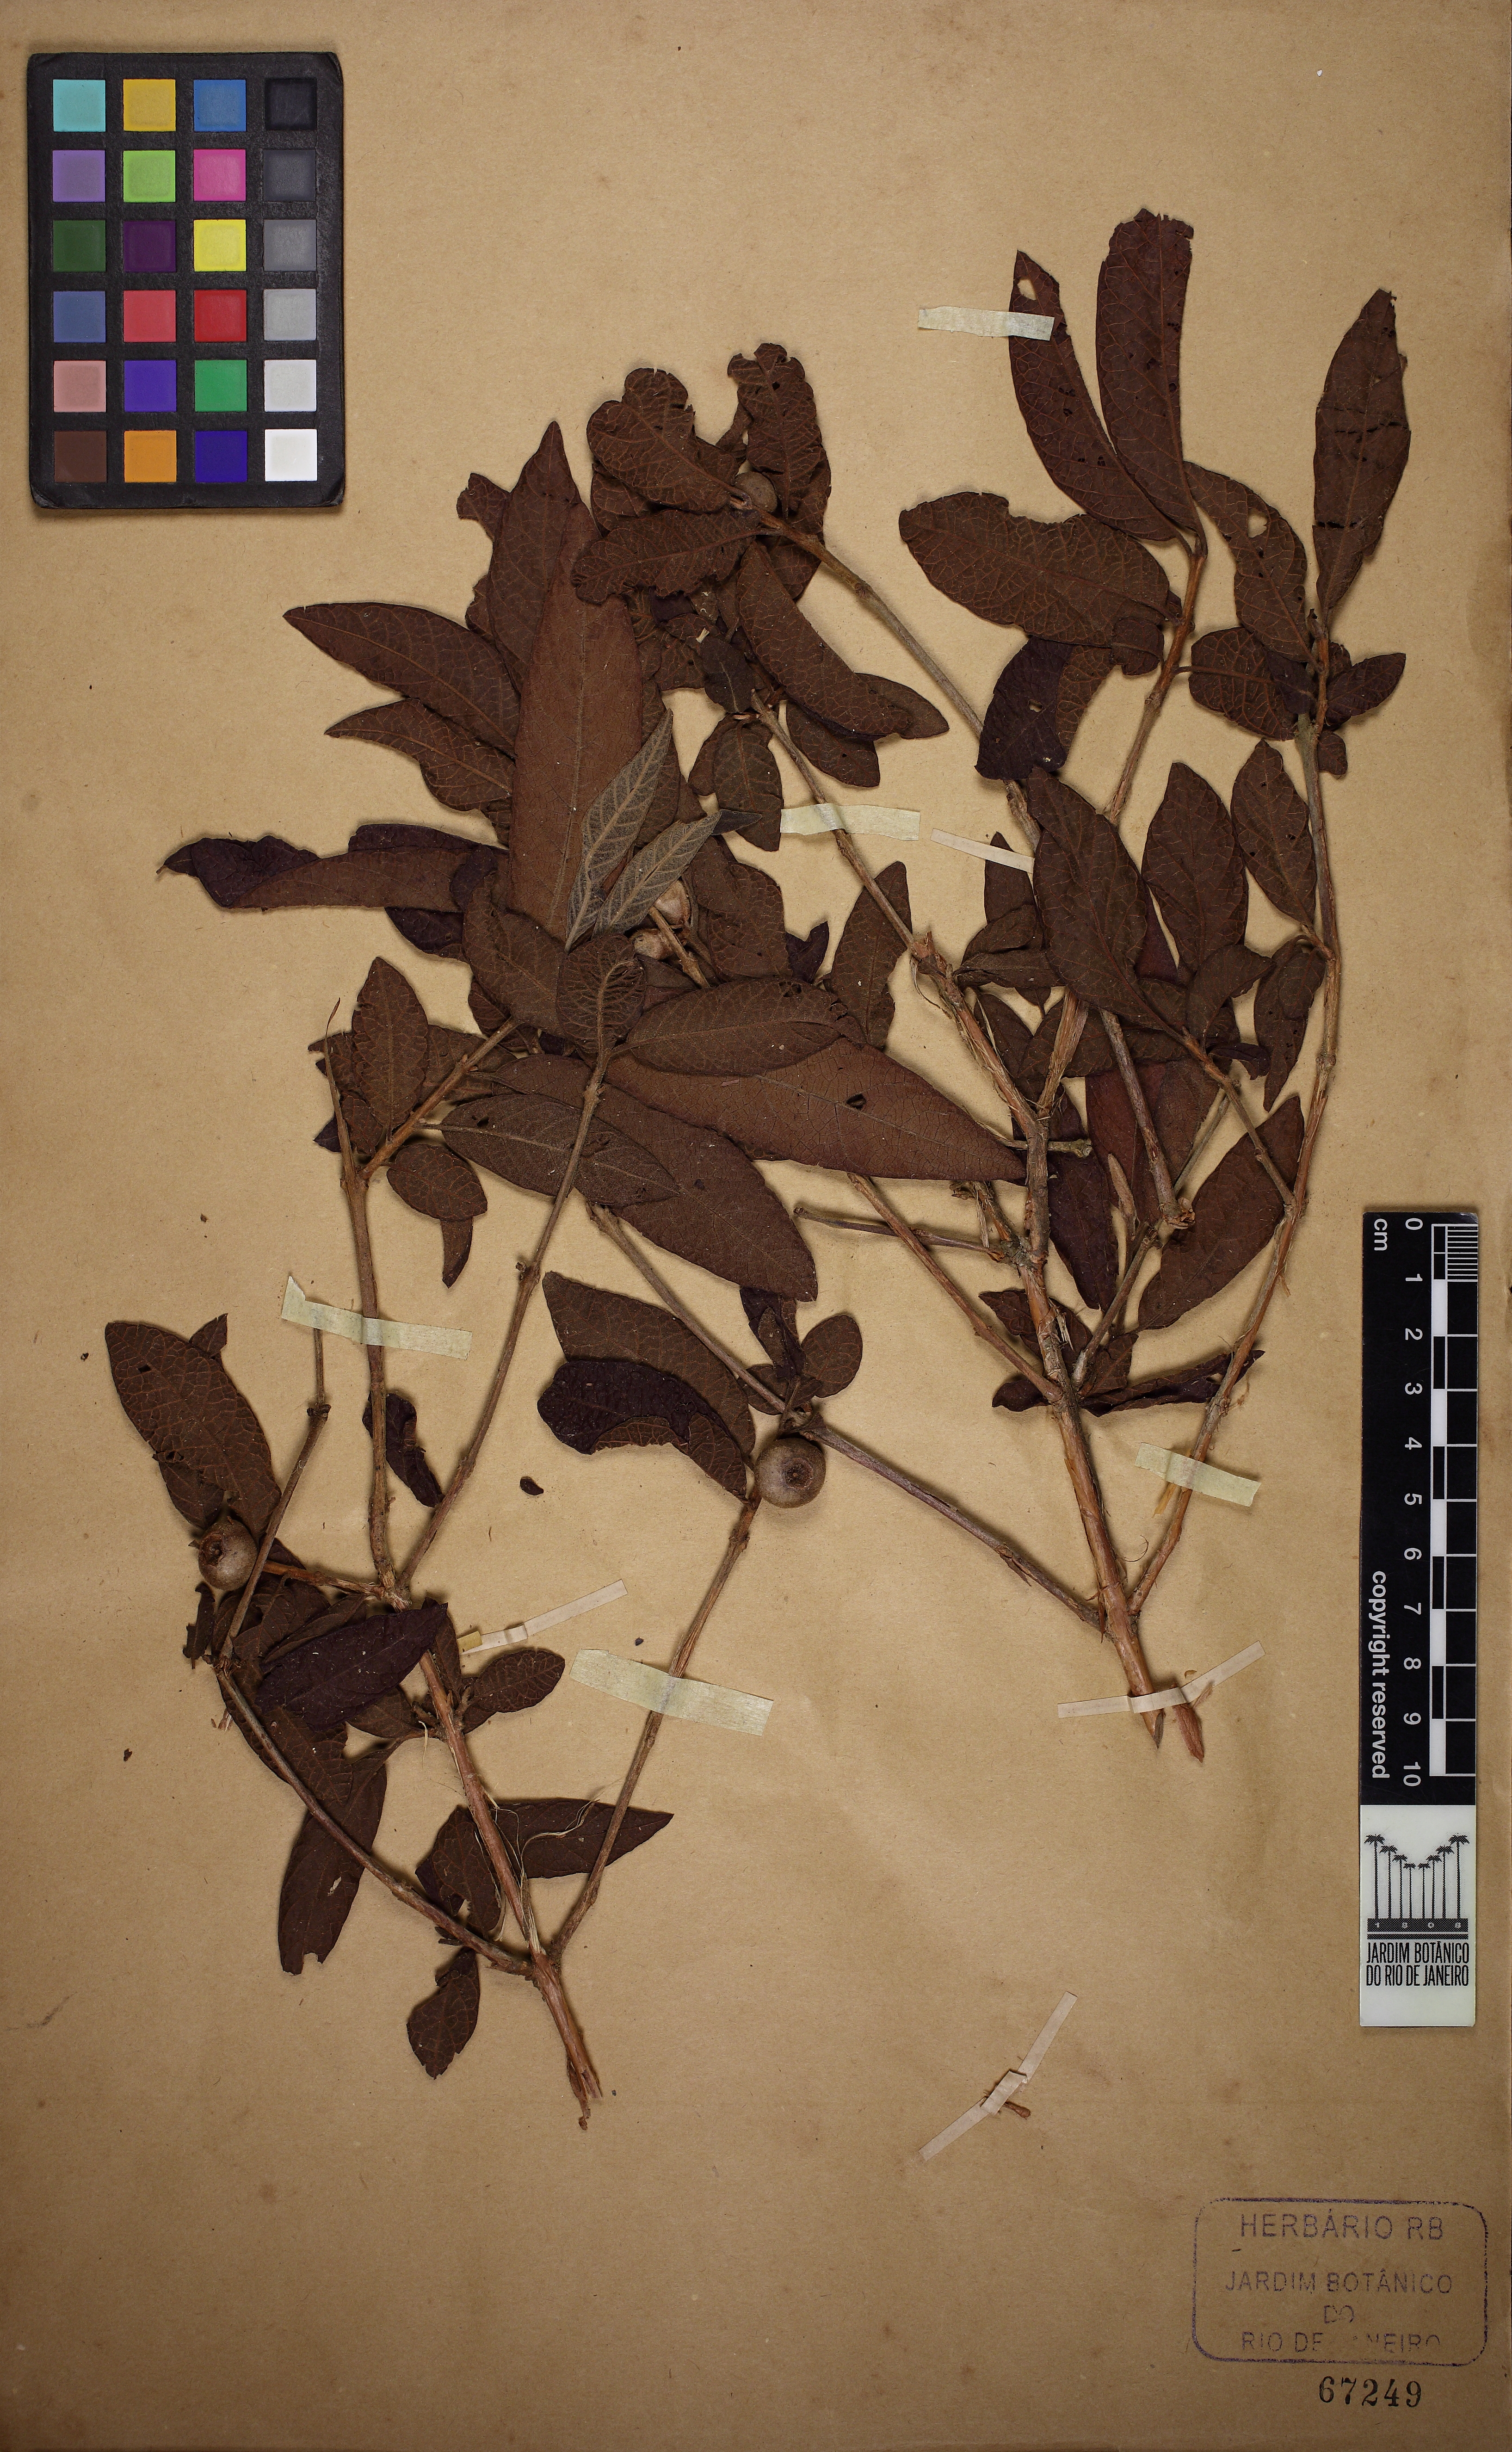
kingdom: Plantae
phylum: Tracheophyta
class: Magnoliopsida
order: Myrtales
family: Myrtaceae
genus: Campomanesia
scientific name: Campomanesia guazumifolia
